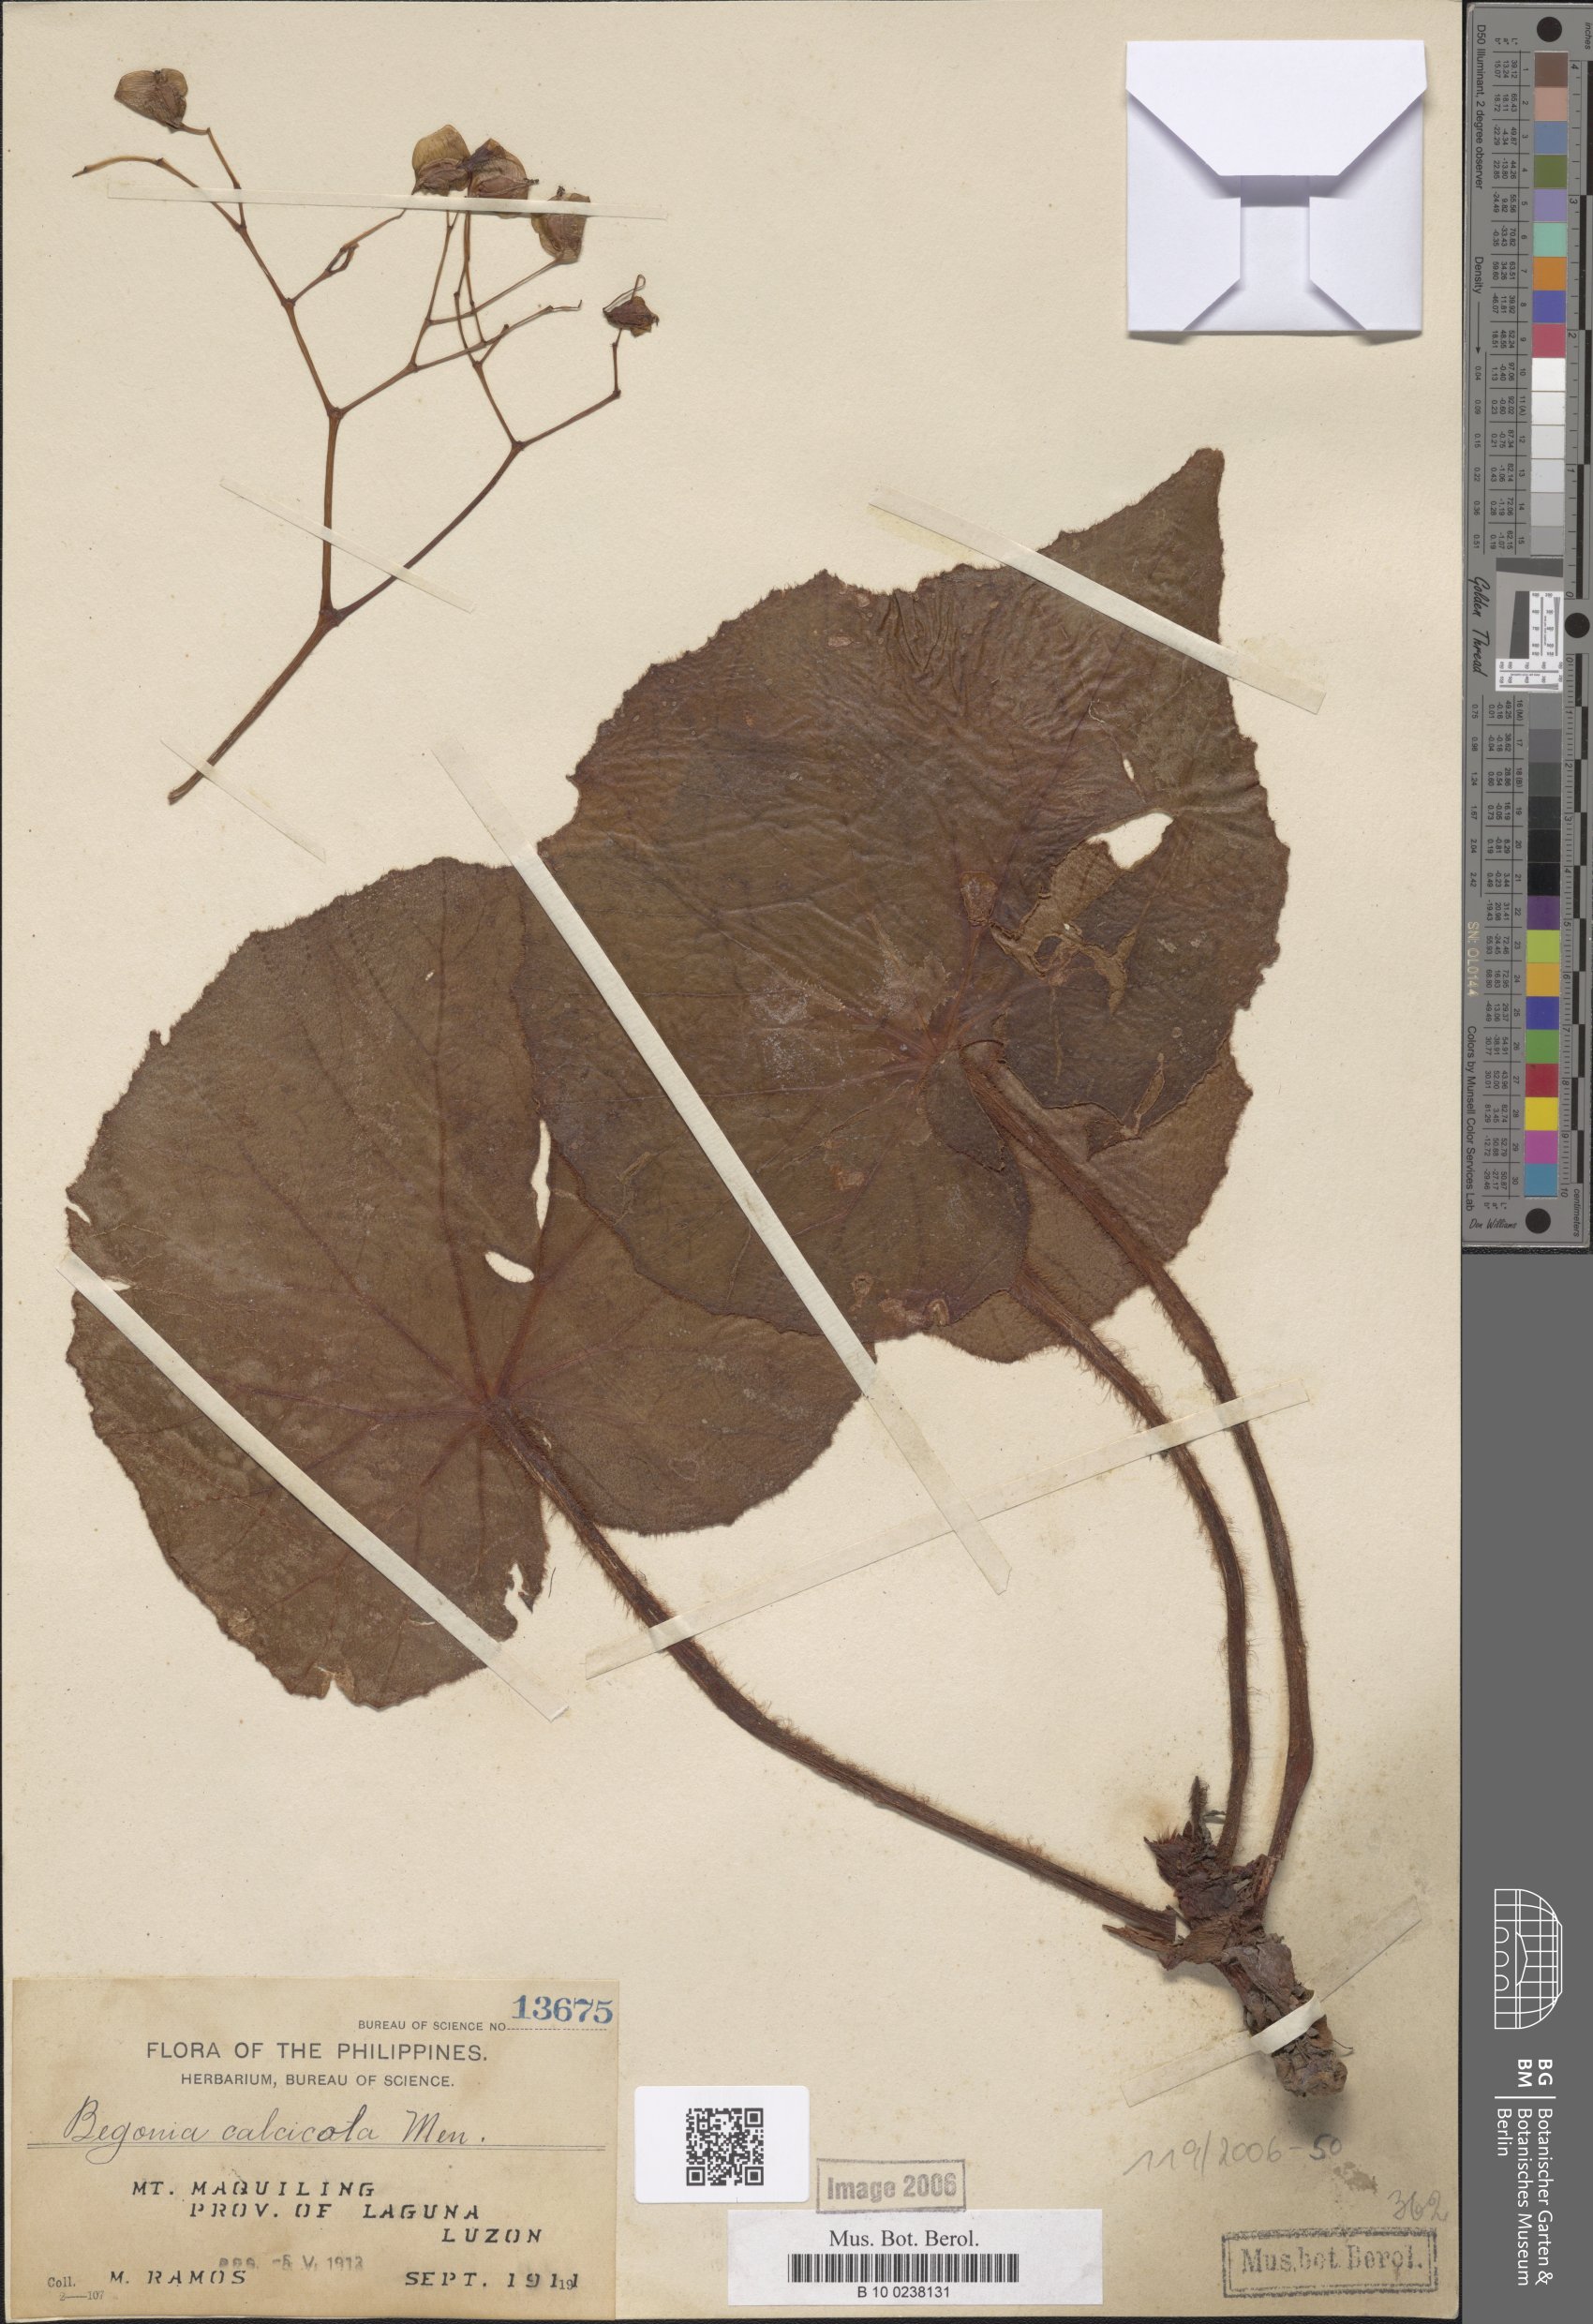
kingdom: Plantae
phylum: Tracheophyta
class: Magnoliopsida
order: Cucurbitales
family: Begoniaceae
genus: Begonia
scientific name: Begonia calcicola
